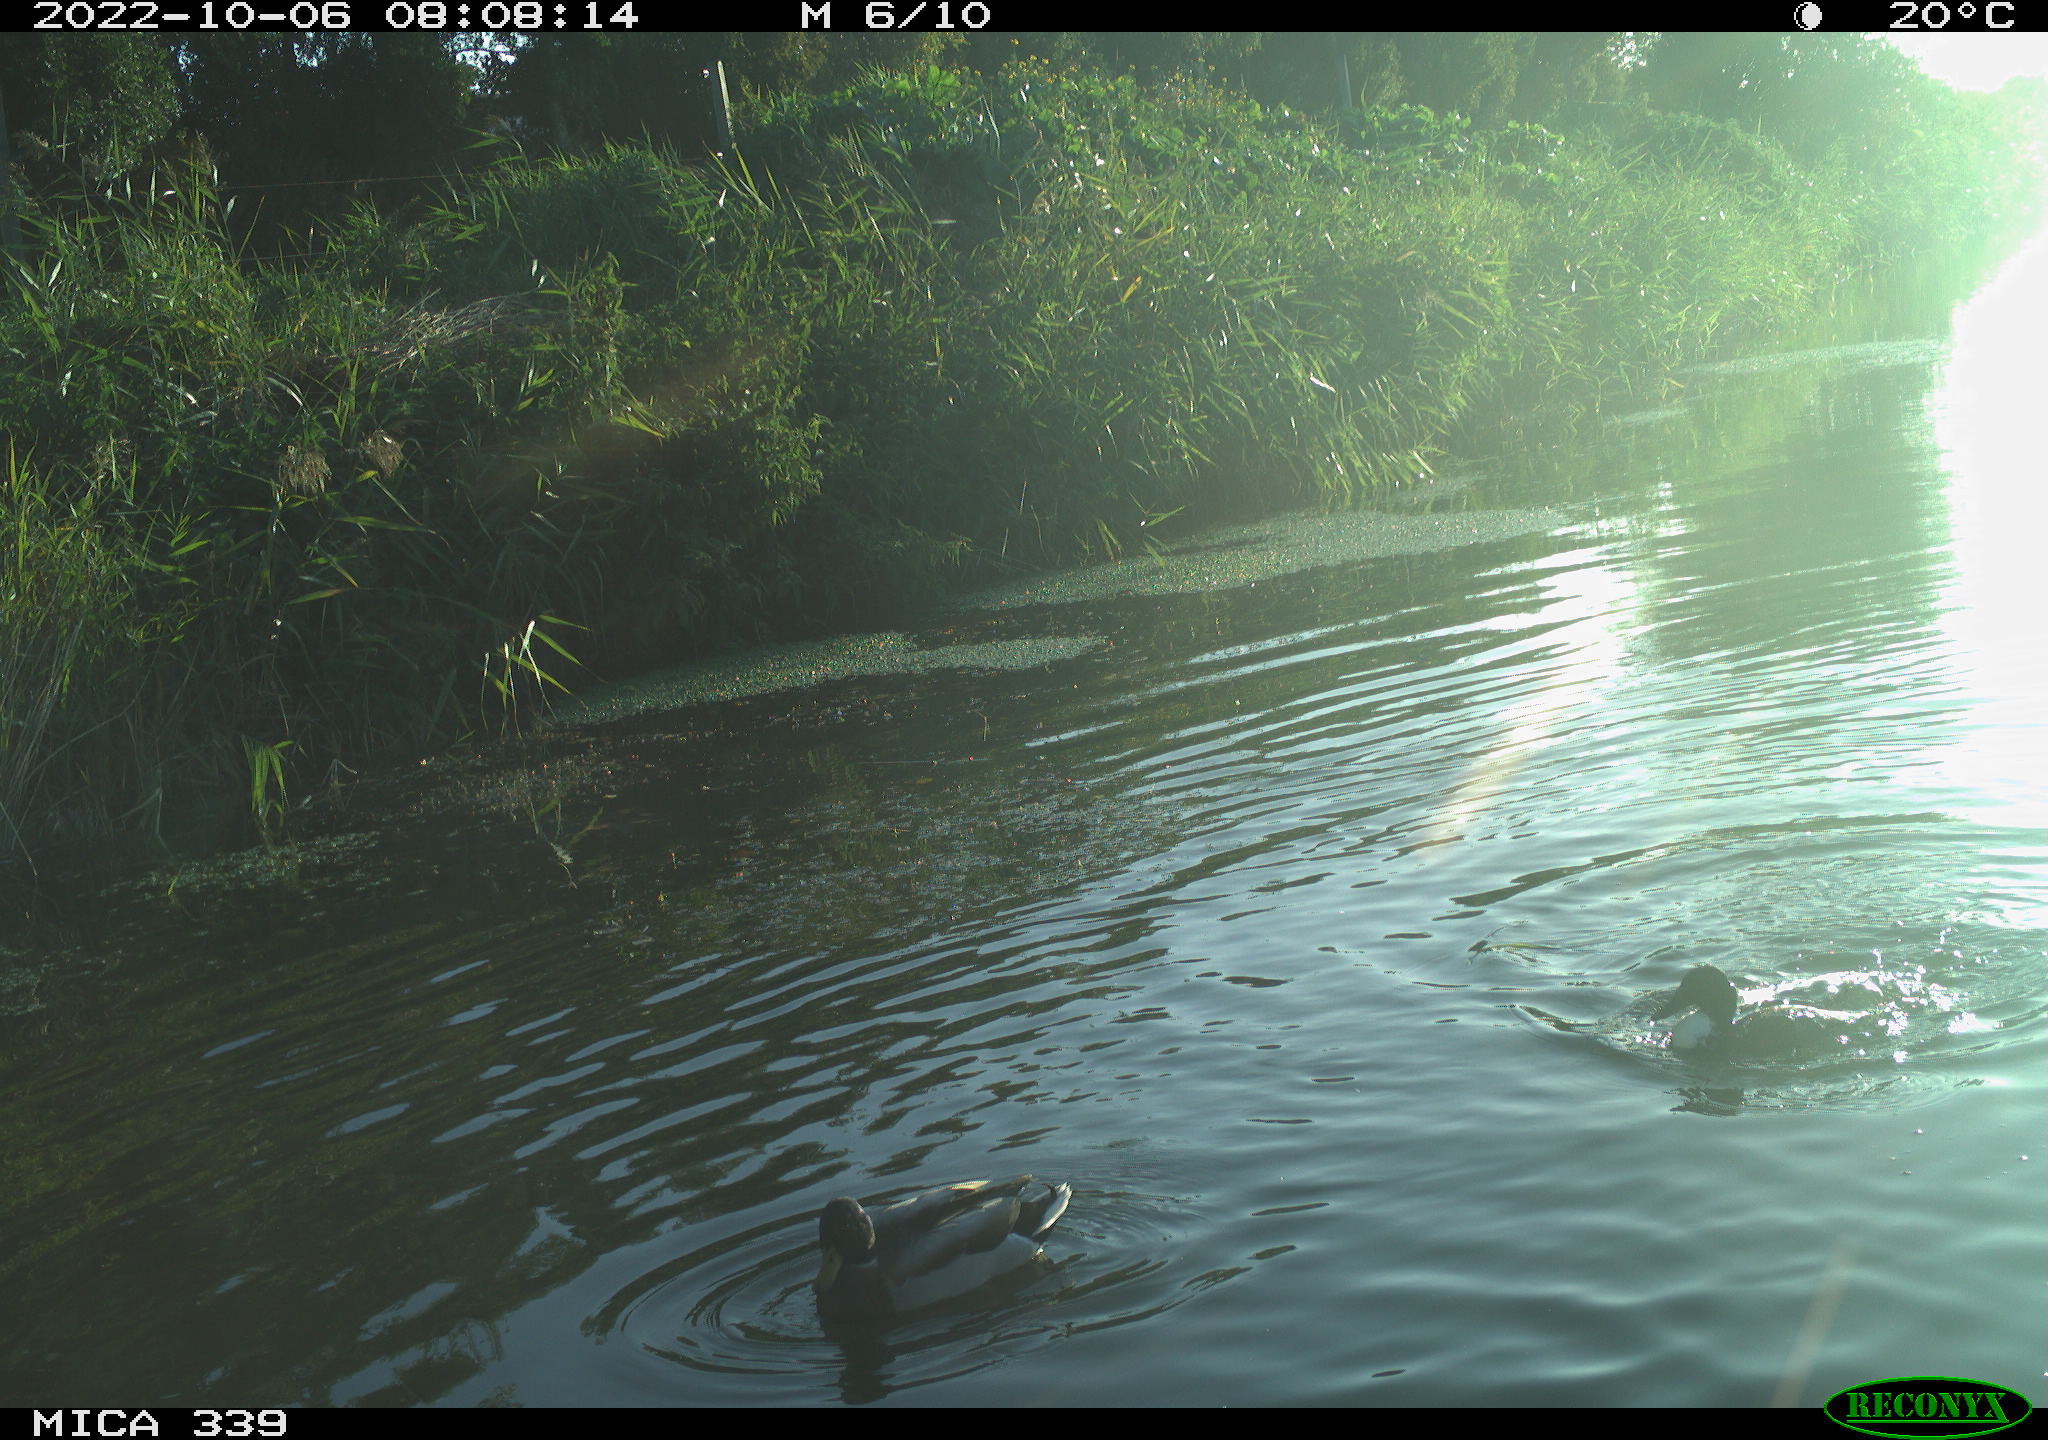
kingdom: Animalia
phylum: Chordata
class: Aves
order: Anseriformes
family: Anatidae
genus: Anas
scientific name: Anas platyrhynchos
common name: Mallard
